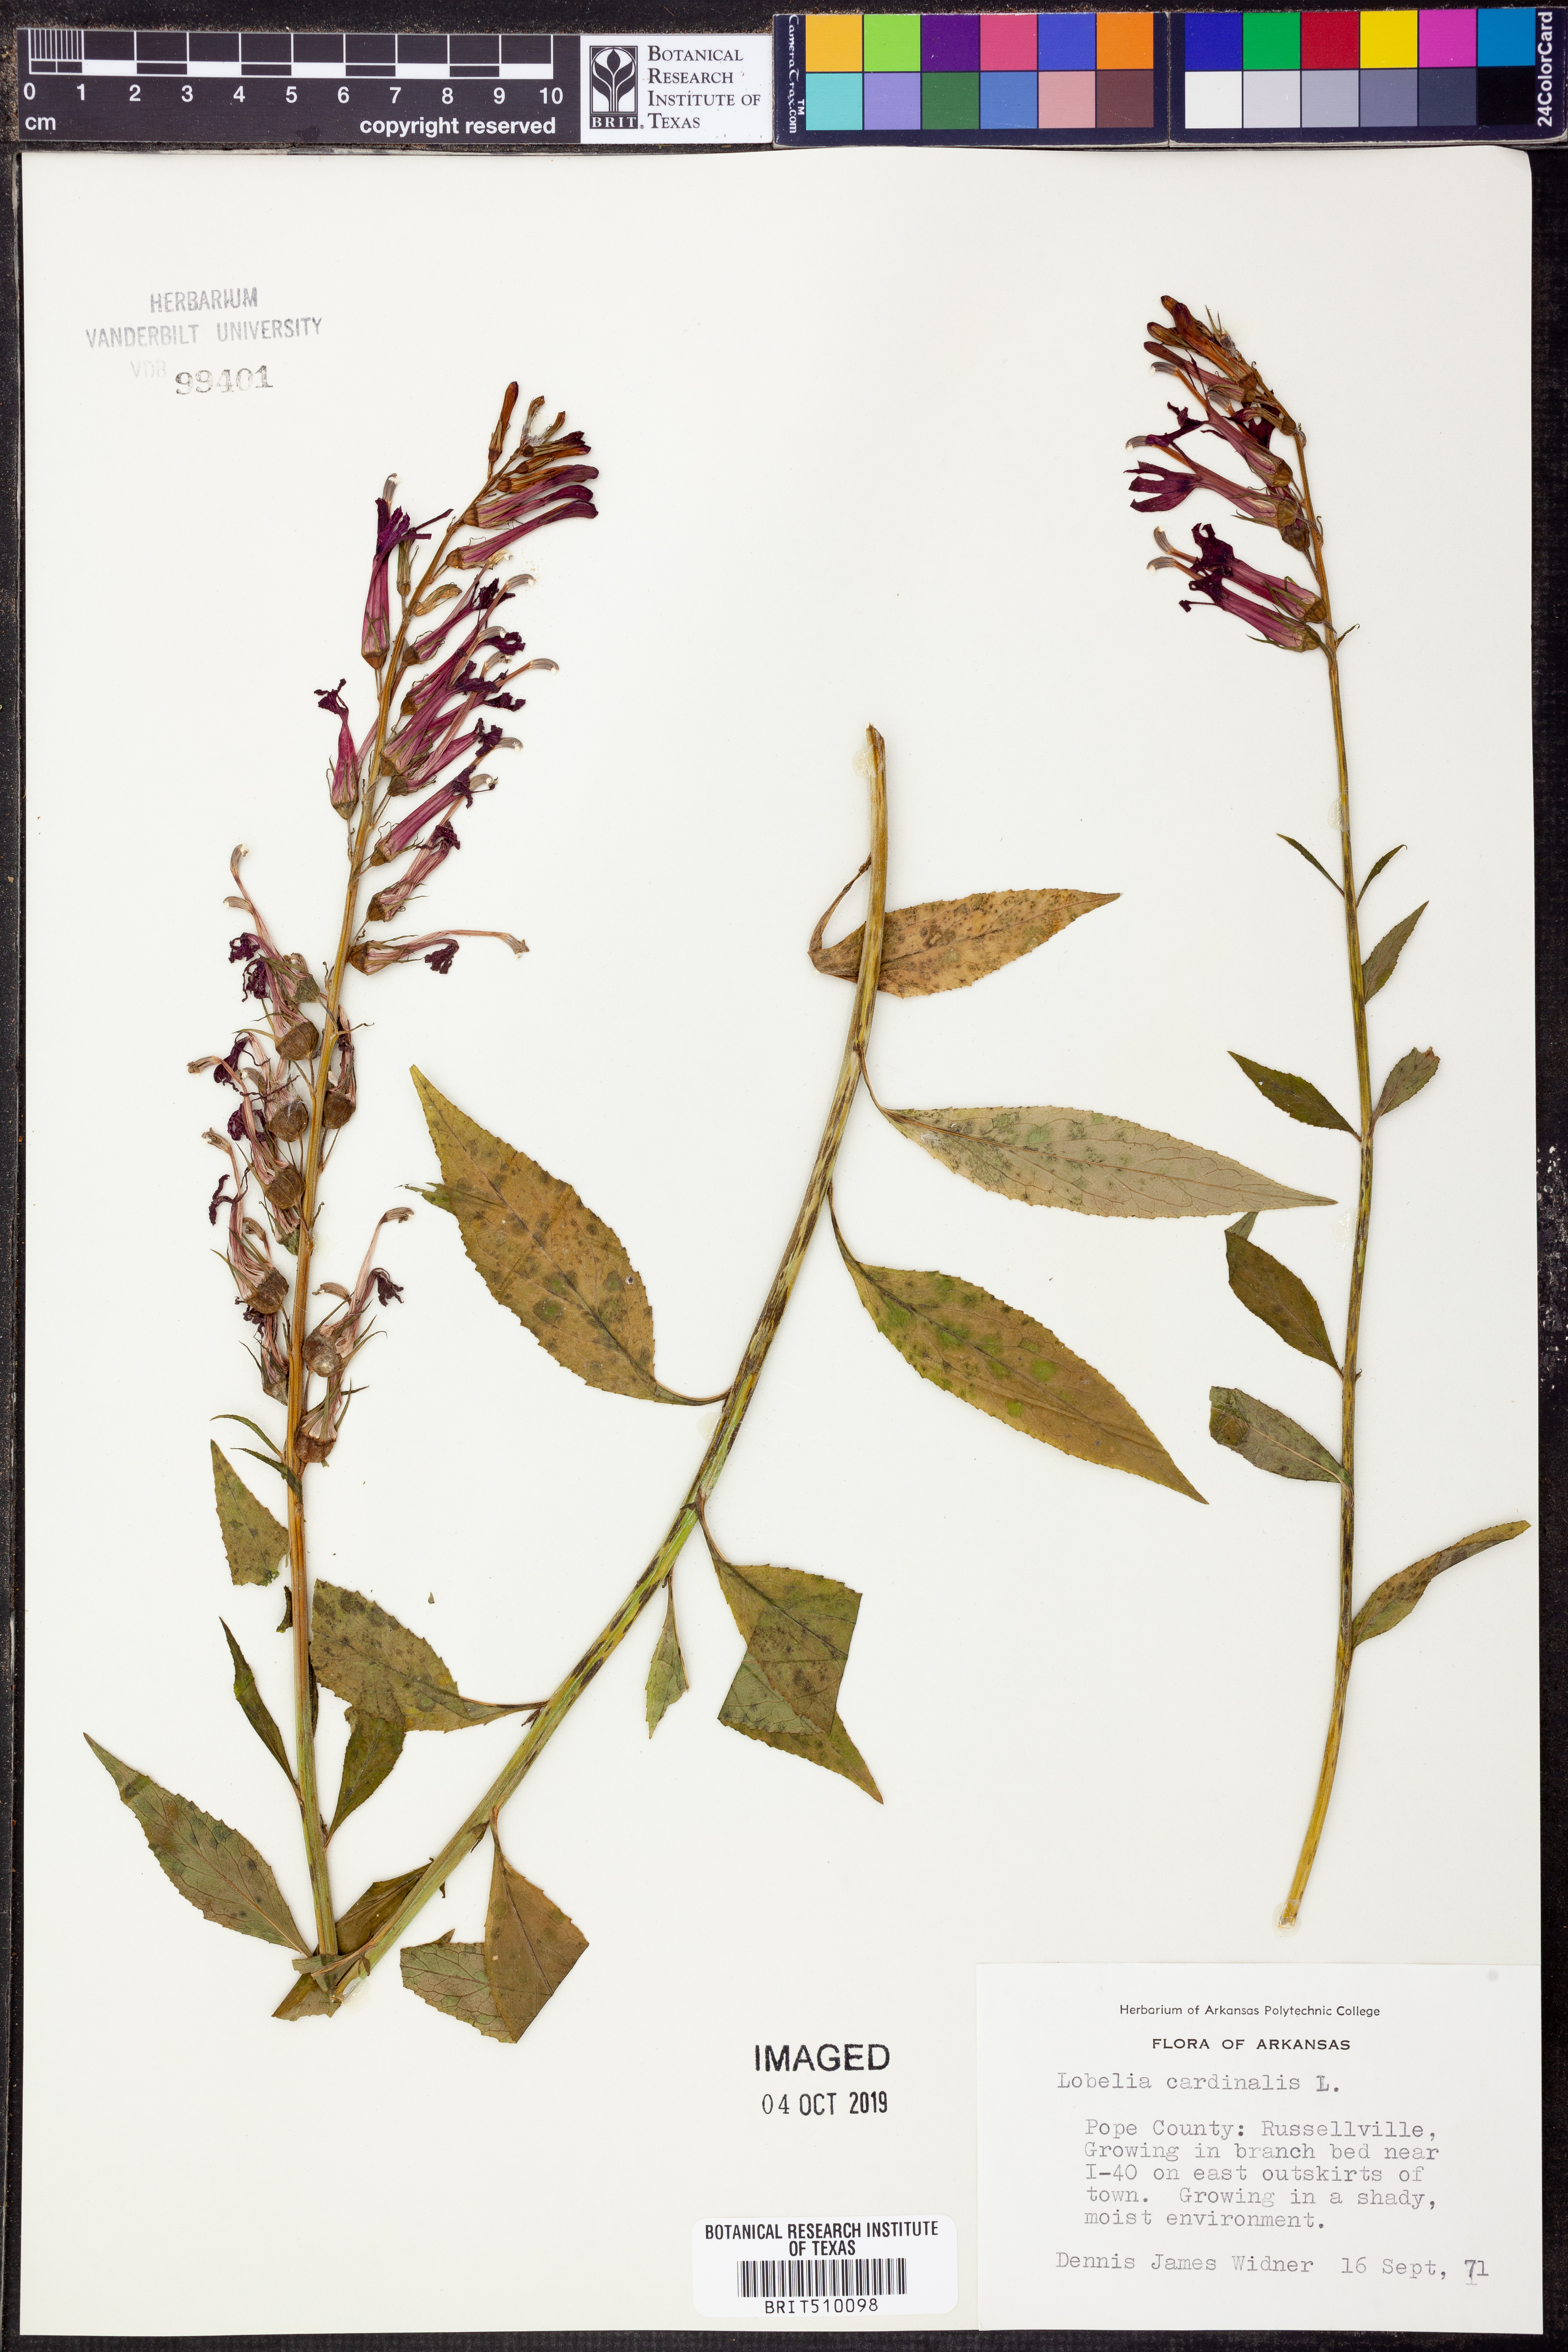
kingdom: Plantae
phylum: Tracheophyta
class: Magnoliopsida
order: Asterales
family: Campanulaceae
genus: Lobelia
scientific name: Lobelia cardinalis
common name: Cardinal flower
